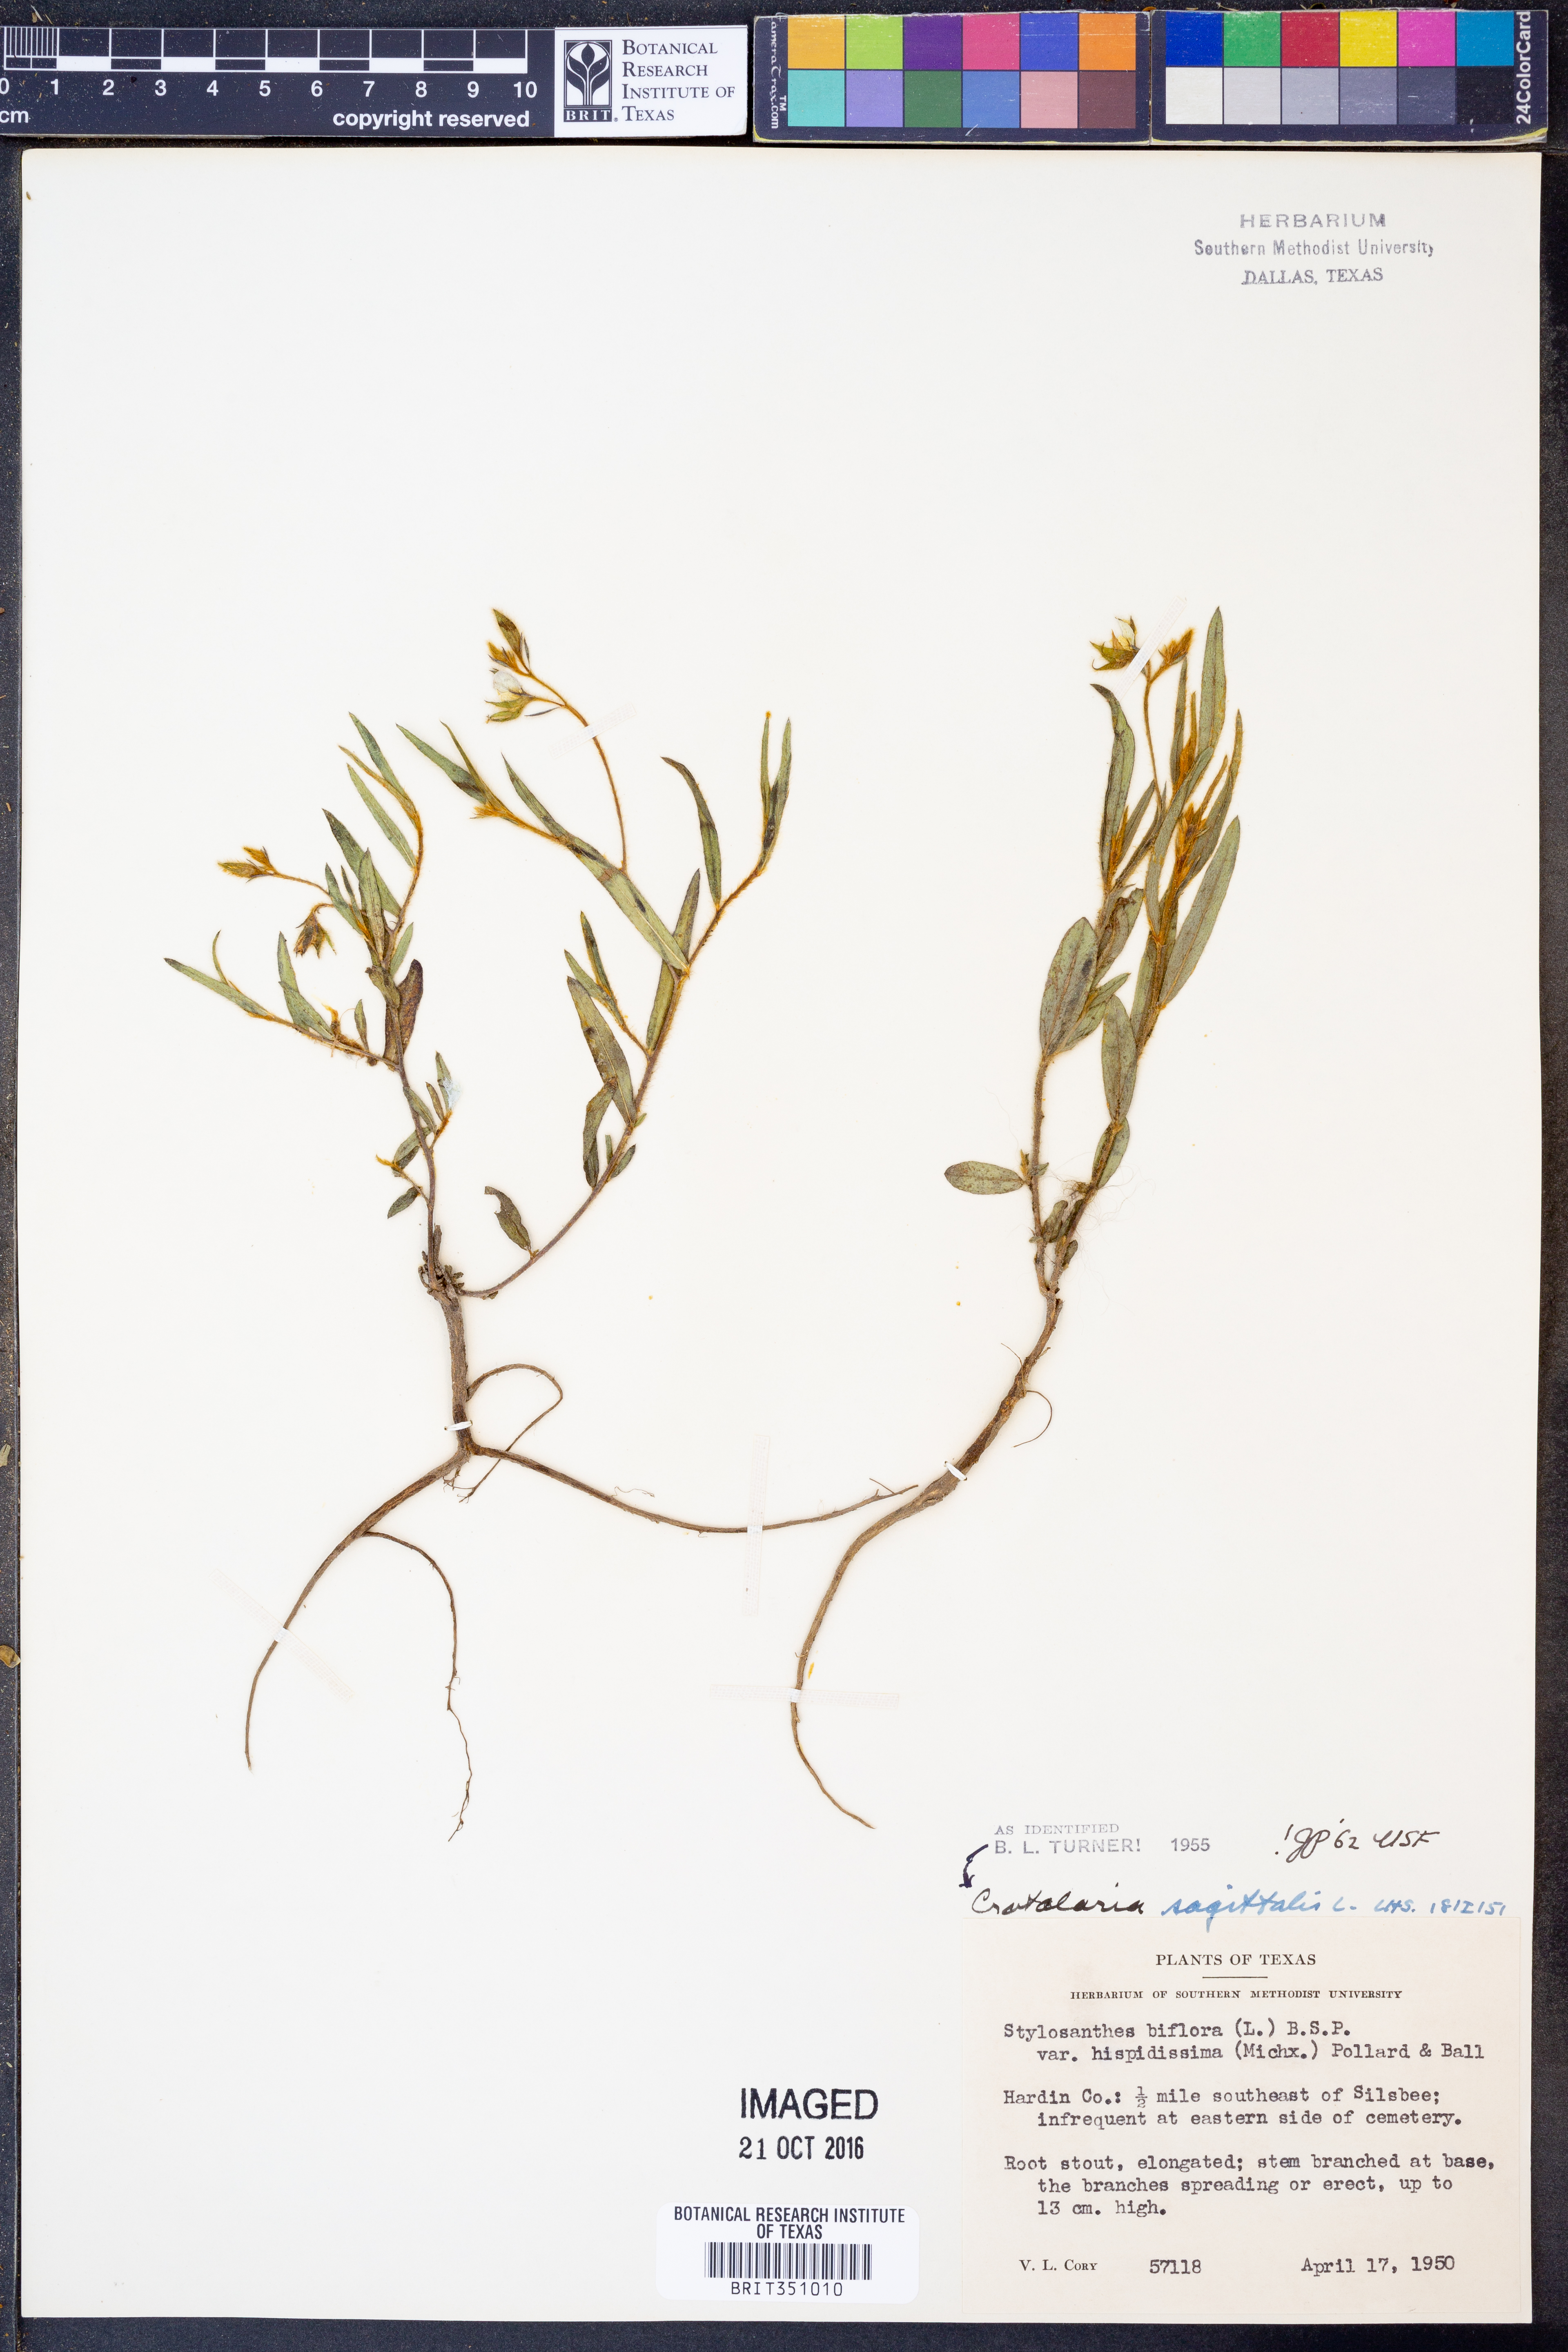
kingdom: Plantae
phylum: Tracheophyta
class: Magnoliopsida
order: Fabales
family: Fabaceae
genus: Crotalaria
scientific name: Crotalaria sagittalis
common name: Arrowhead rattlebox
